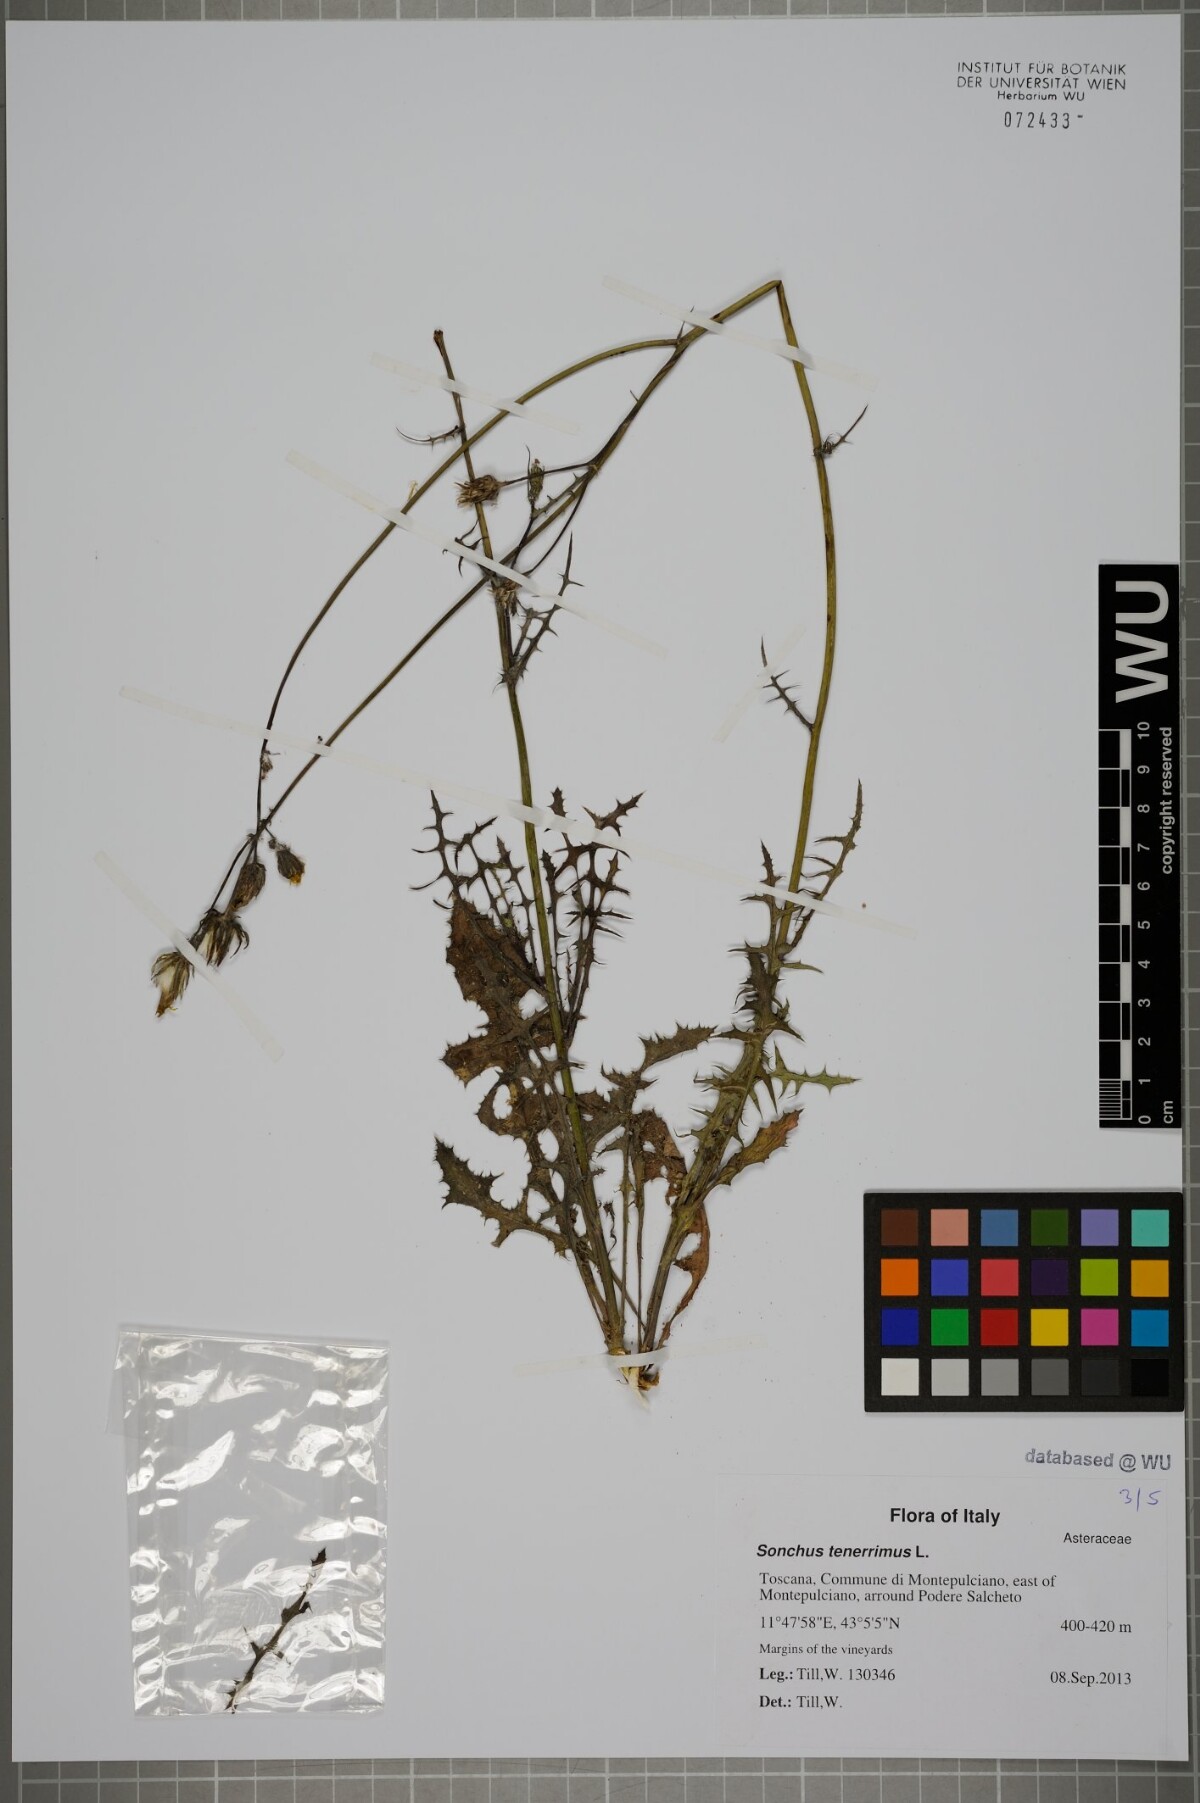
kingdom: Plantae
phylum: Tracheophyta
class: Magnoliopsida
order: Asterales
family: Asteraceae
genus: Sonchus
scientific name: Sonchus tenerrimus
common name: Clammy sowthistle
